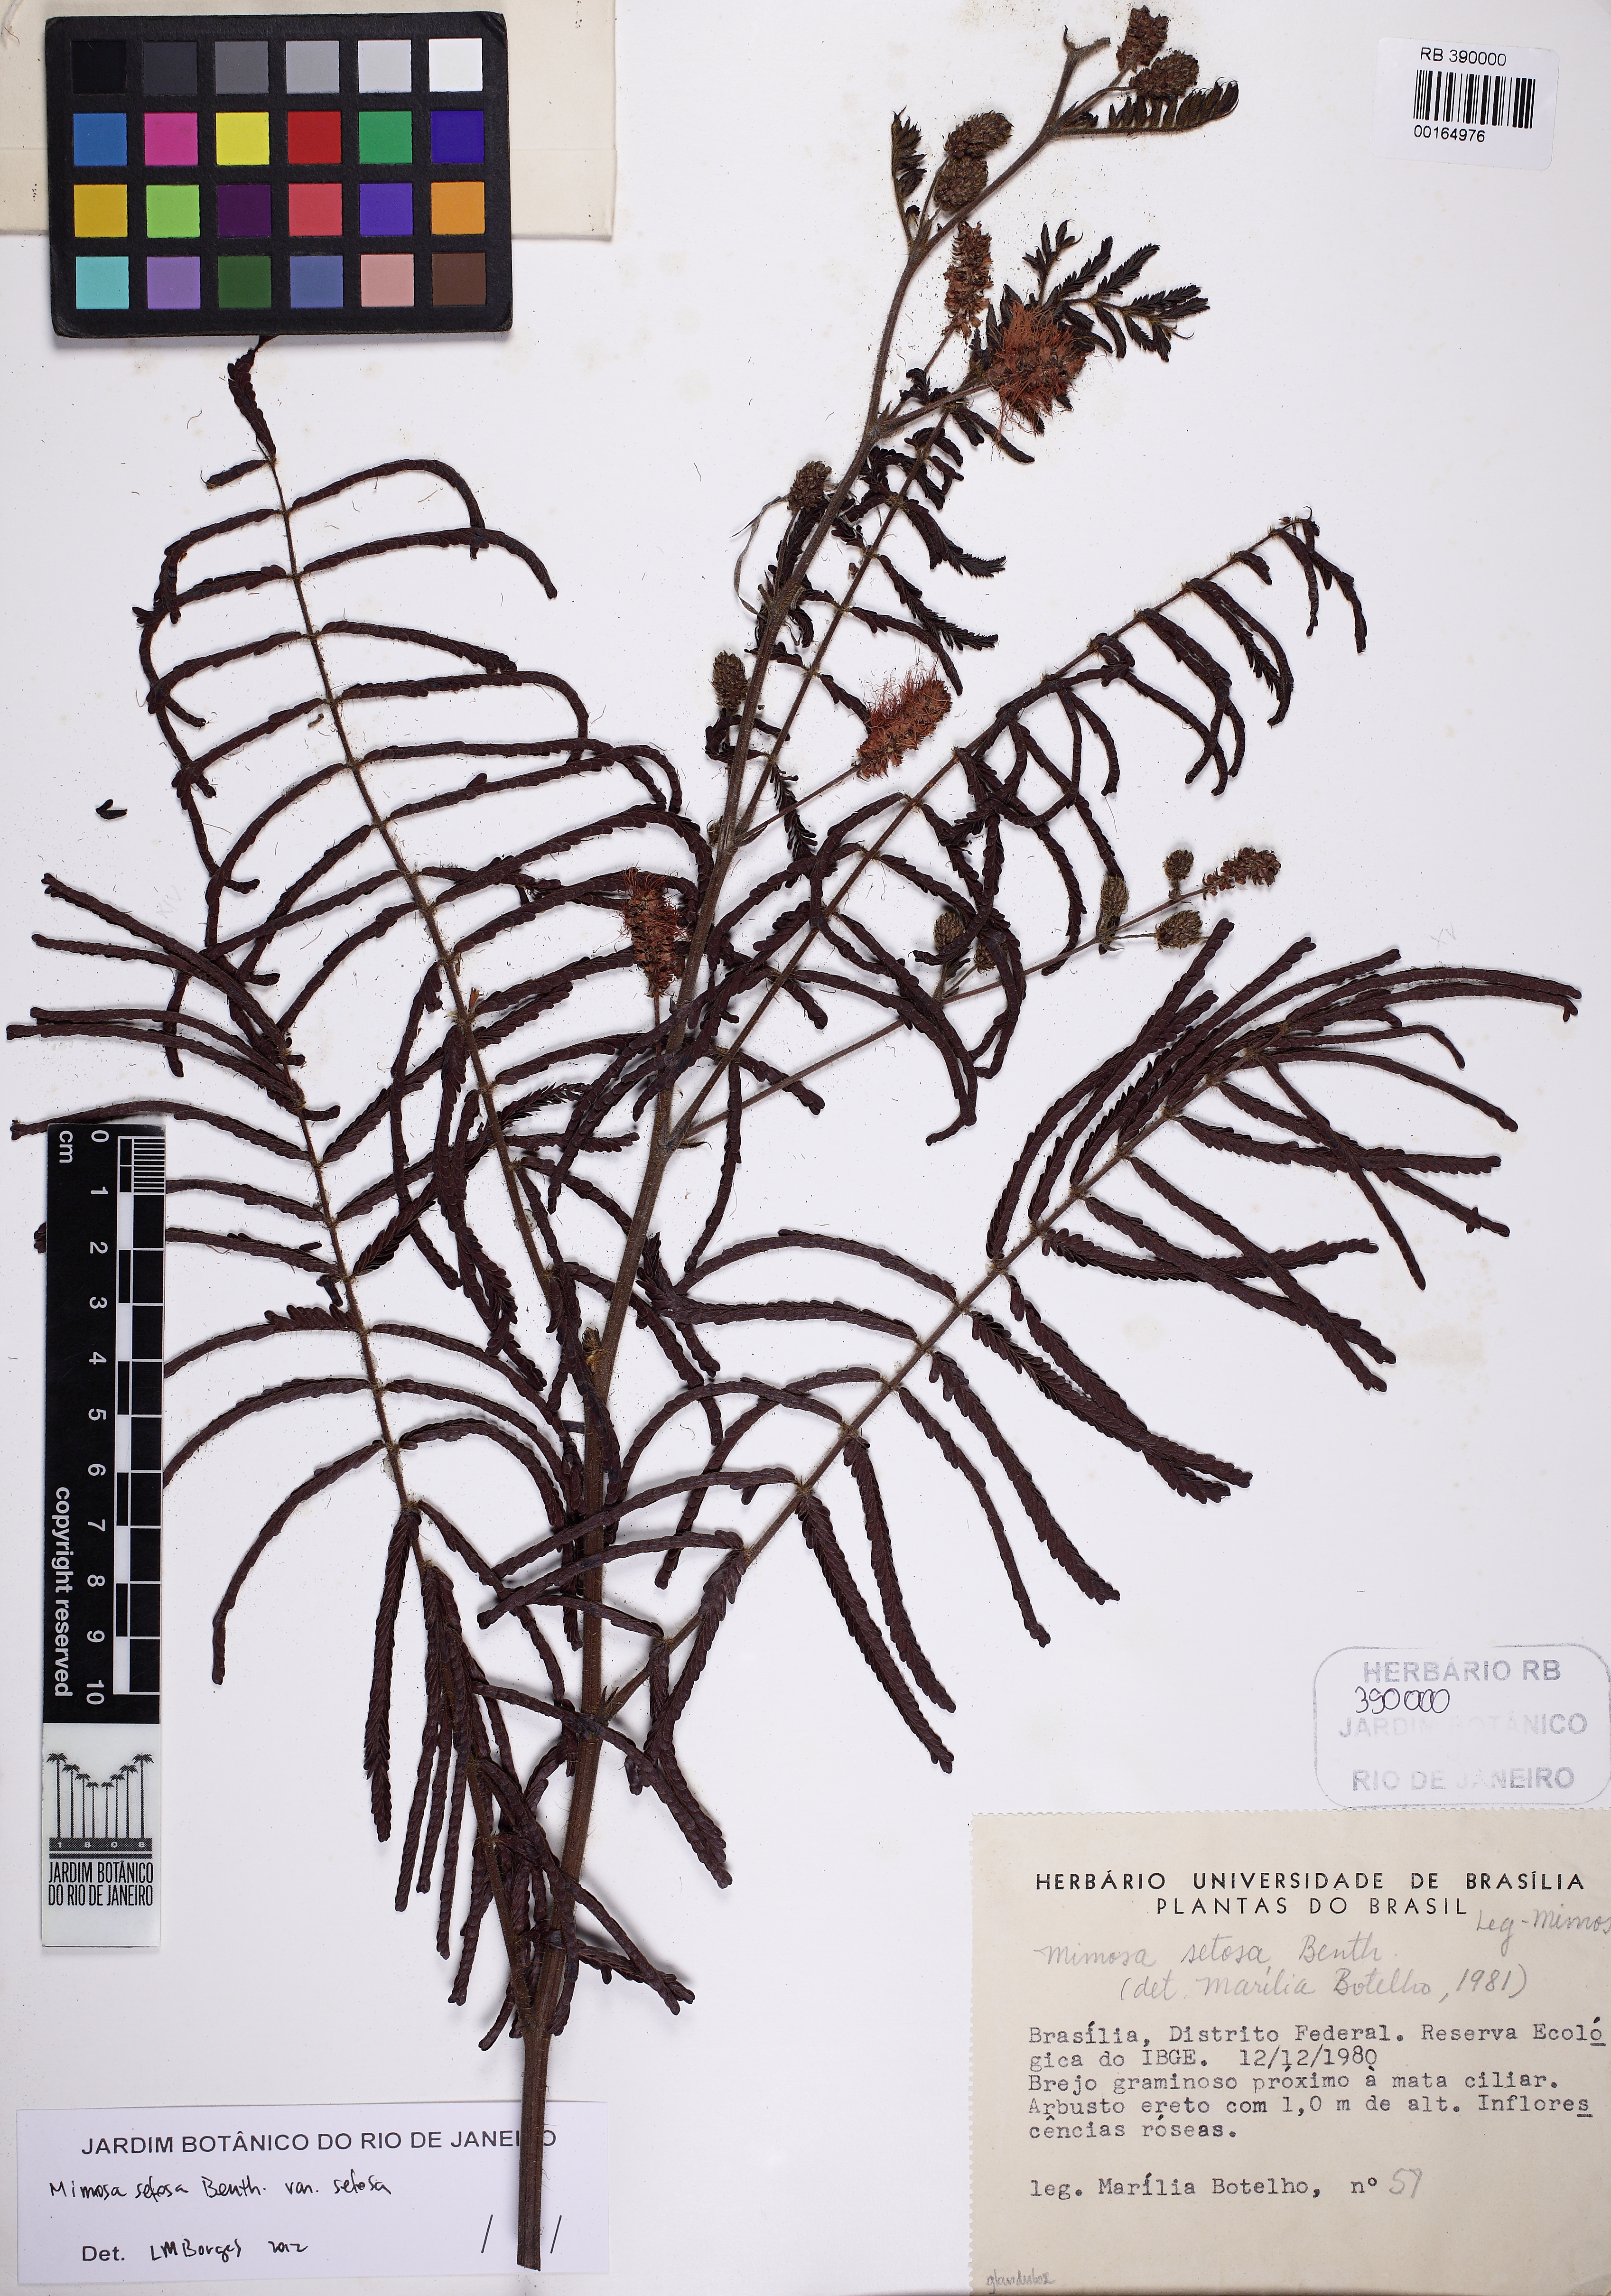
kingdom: Plantae
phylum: Tracheophyta
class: Magnoliopsida
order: Fabales
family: Fabaceae
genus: Mimosa
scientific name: Mimosa setosa
